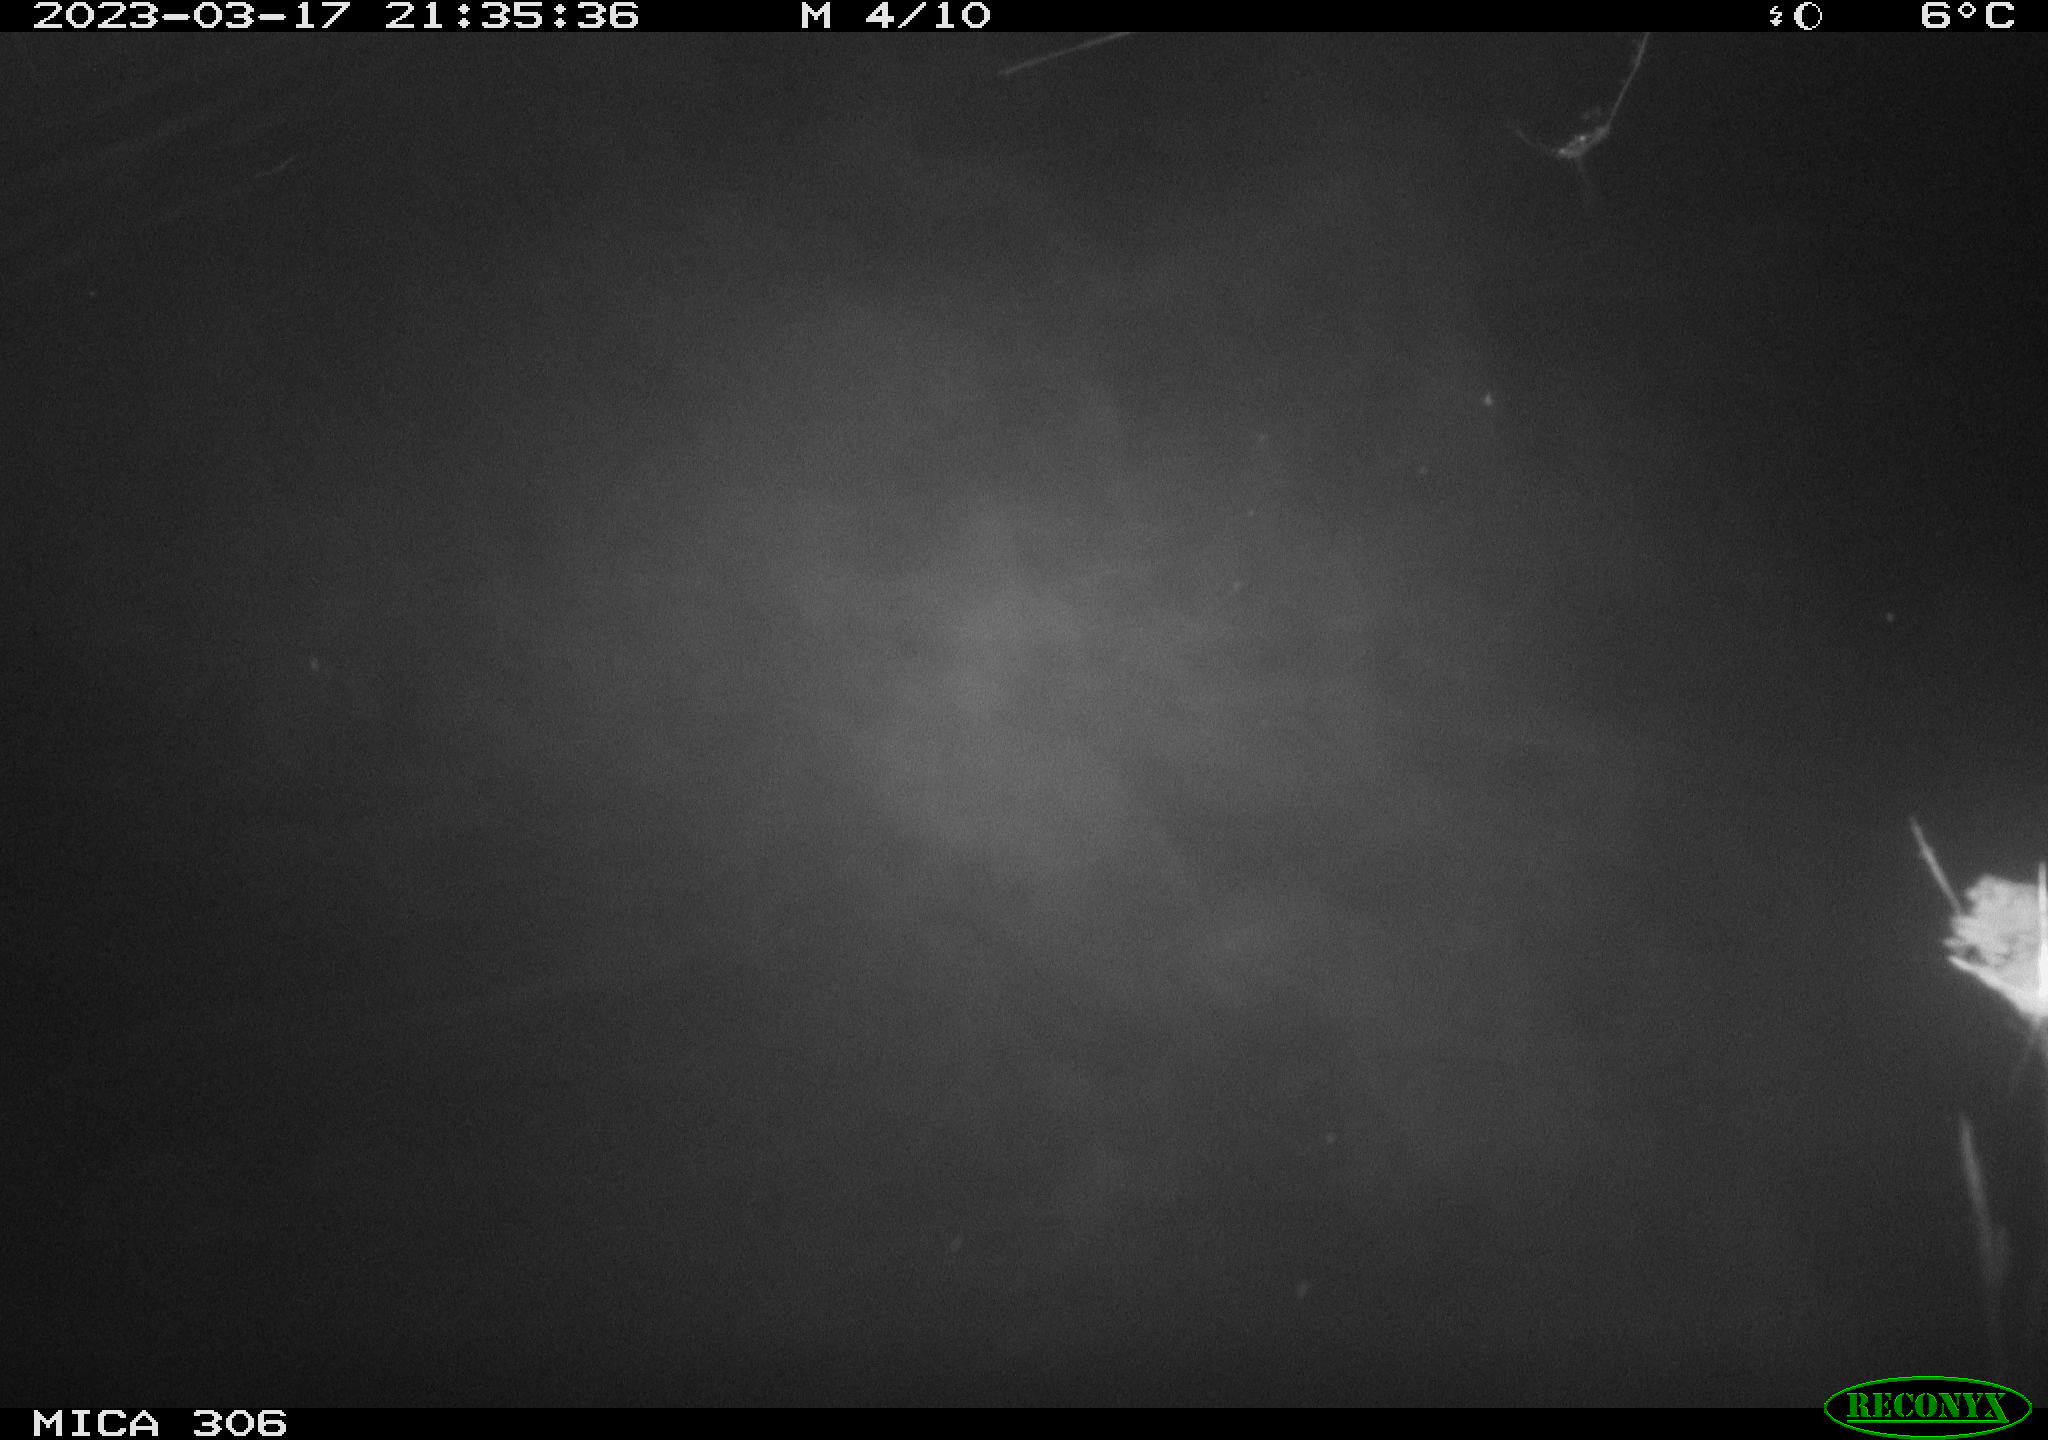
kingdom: Animalia
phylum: Chordata
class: Mammalia
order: Rodentia
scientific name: Rodentia
